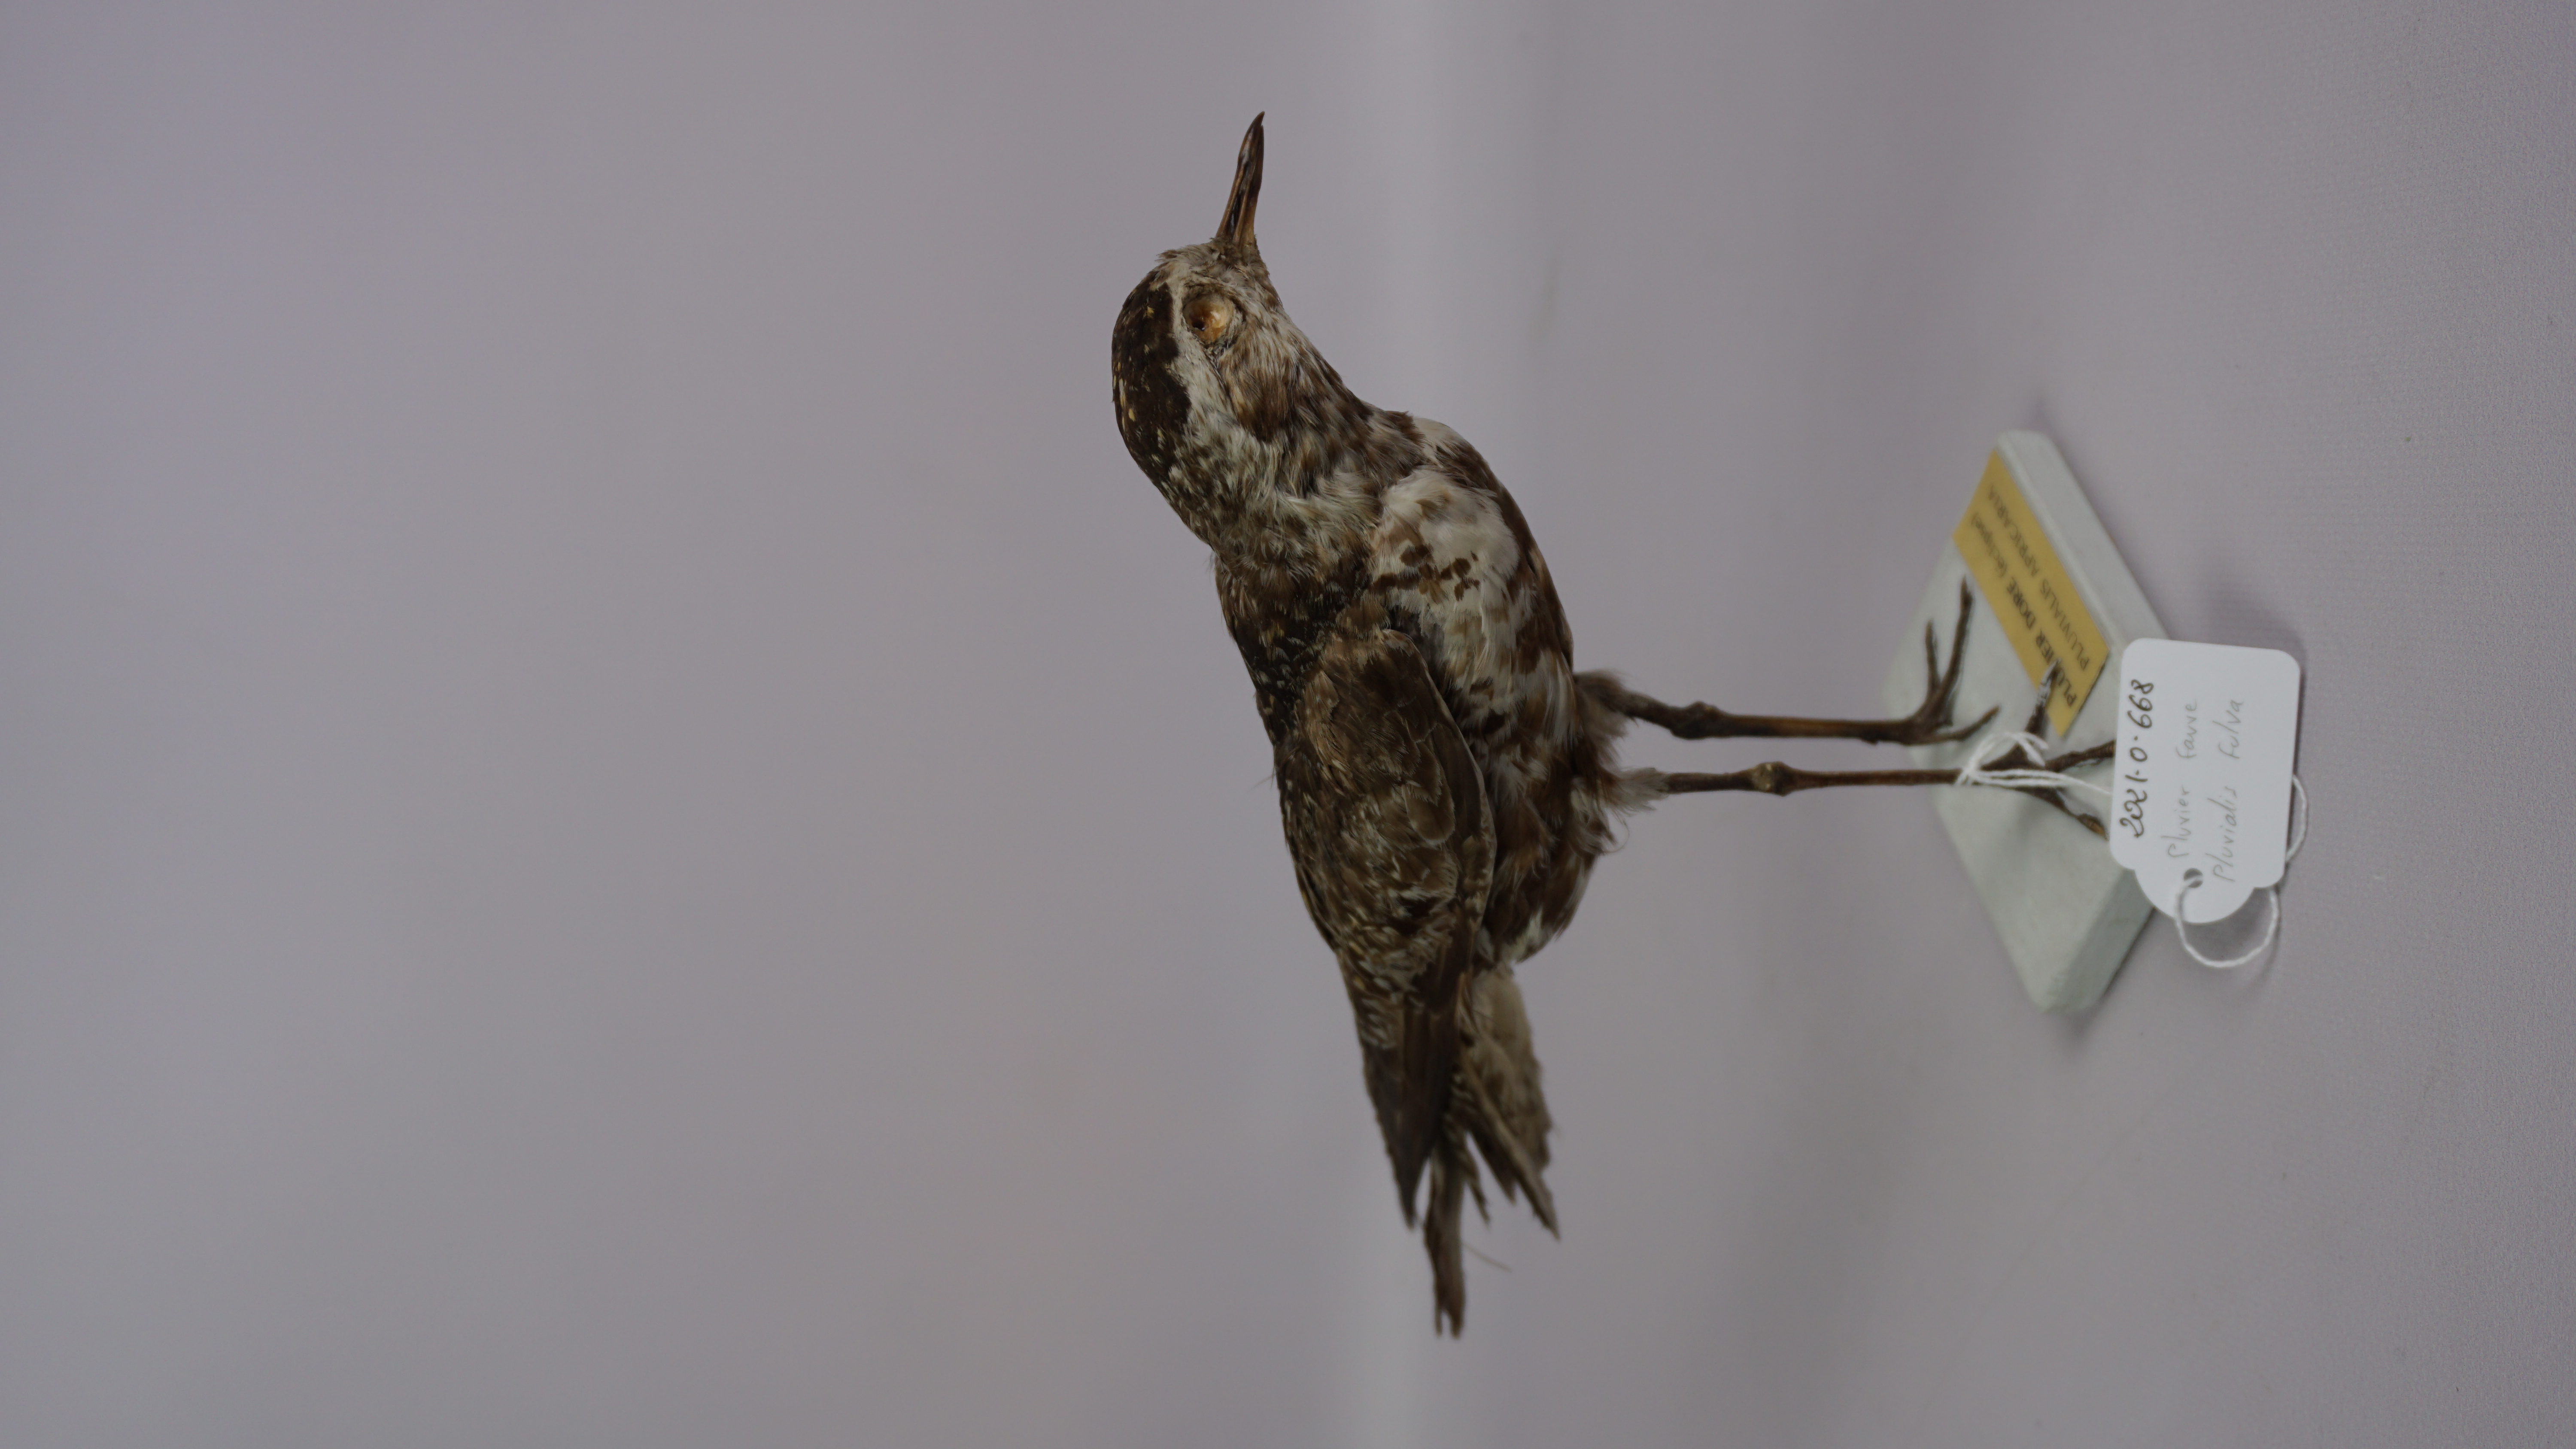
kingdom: Animalia
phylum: Chordata
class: Aves
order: Charadriiformes
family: Charadriidae
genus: Pluvialis
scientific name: Pluvialis fulva
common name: Pacific golden plover
